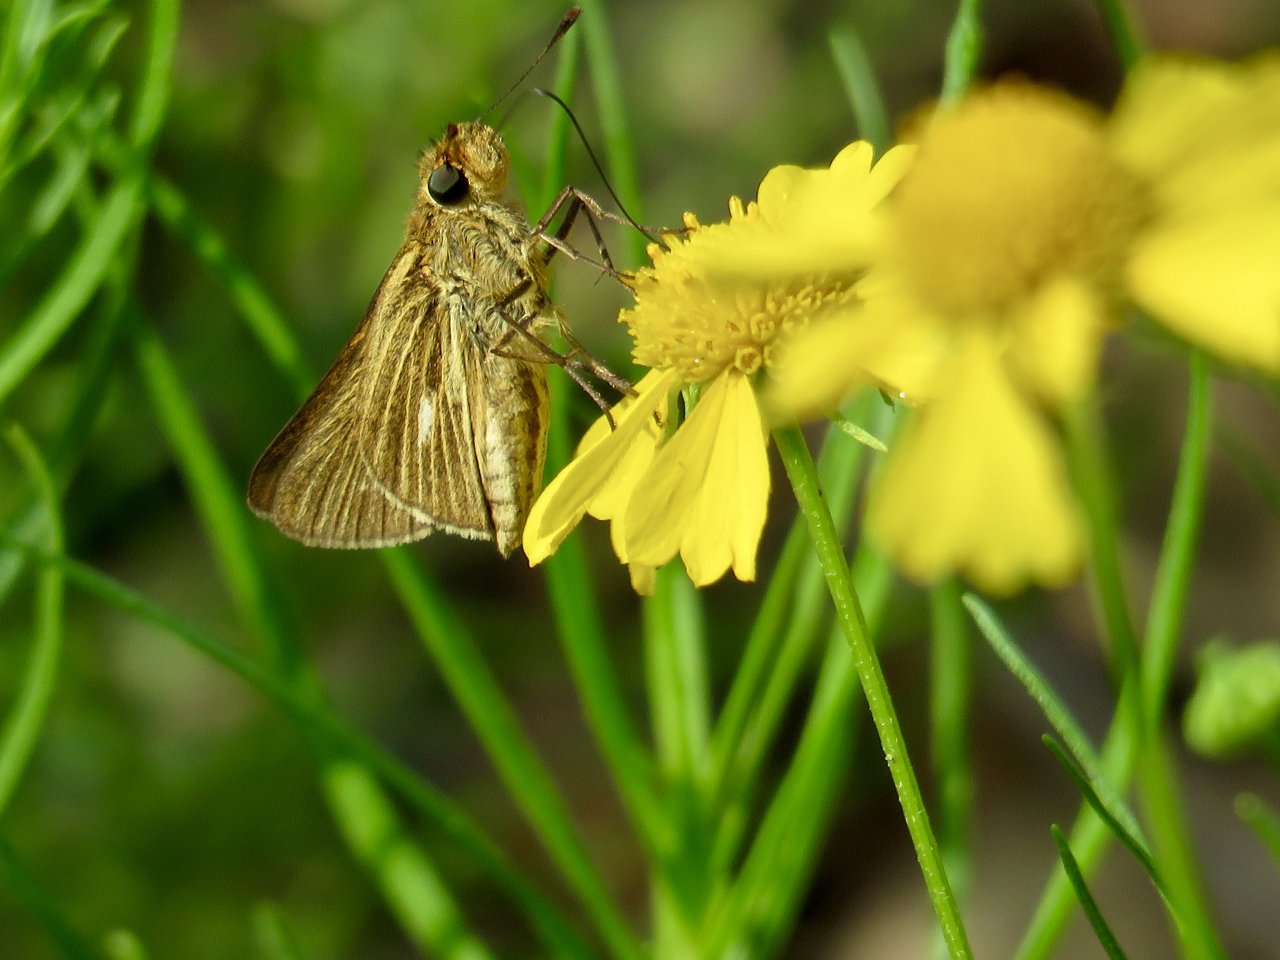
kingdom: Animalia
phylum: Arthropoda
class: Insecta
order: Lepidoptera
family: Hesperiidae
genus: Panoquina
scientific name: Panoquina panoquin
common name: Salt Marsh Skipper
